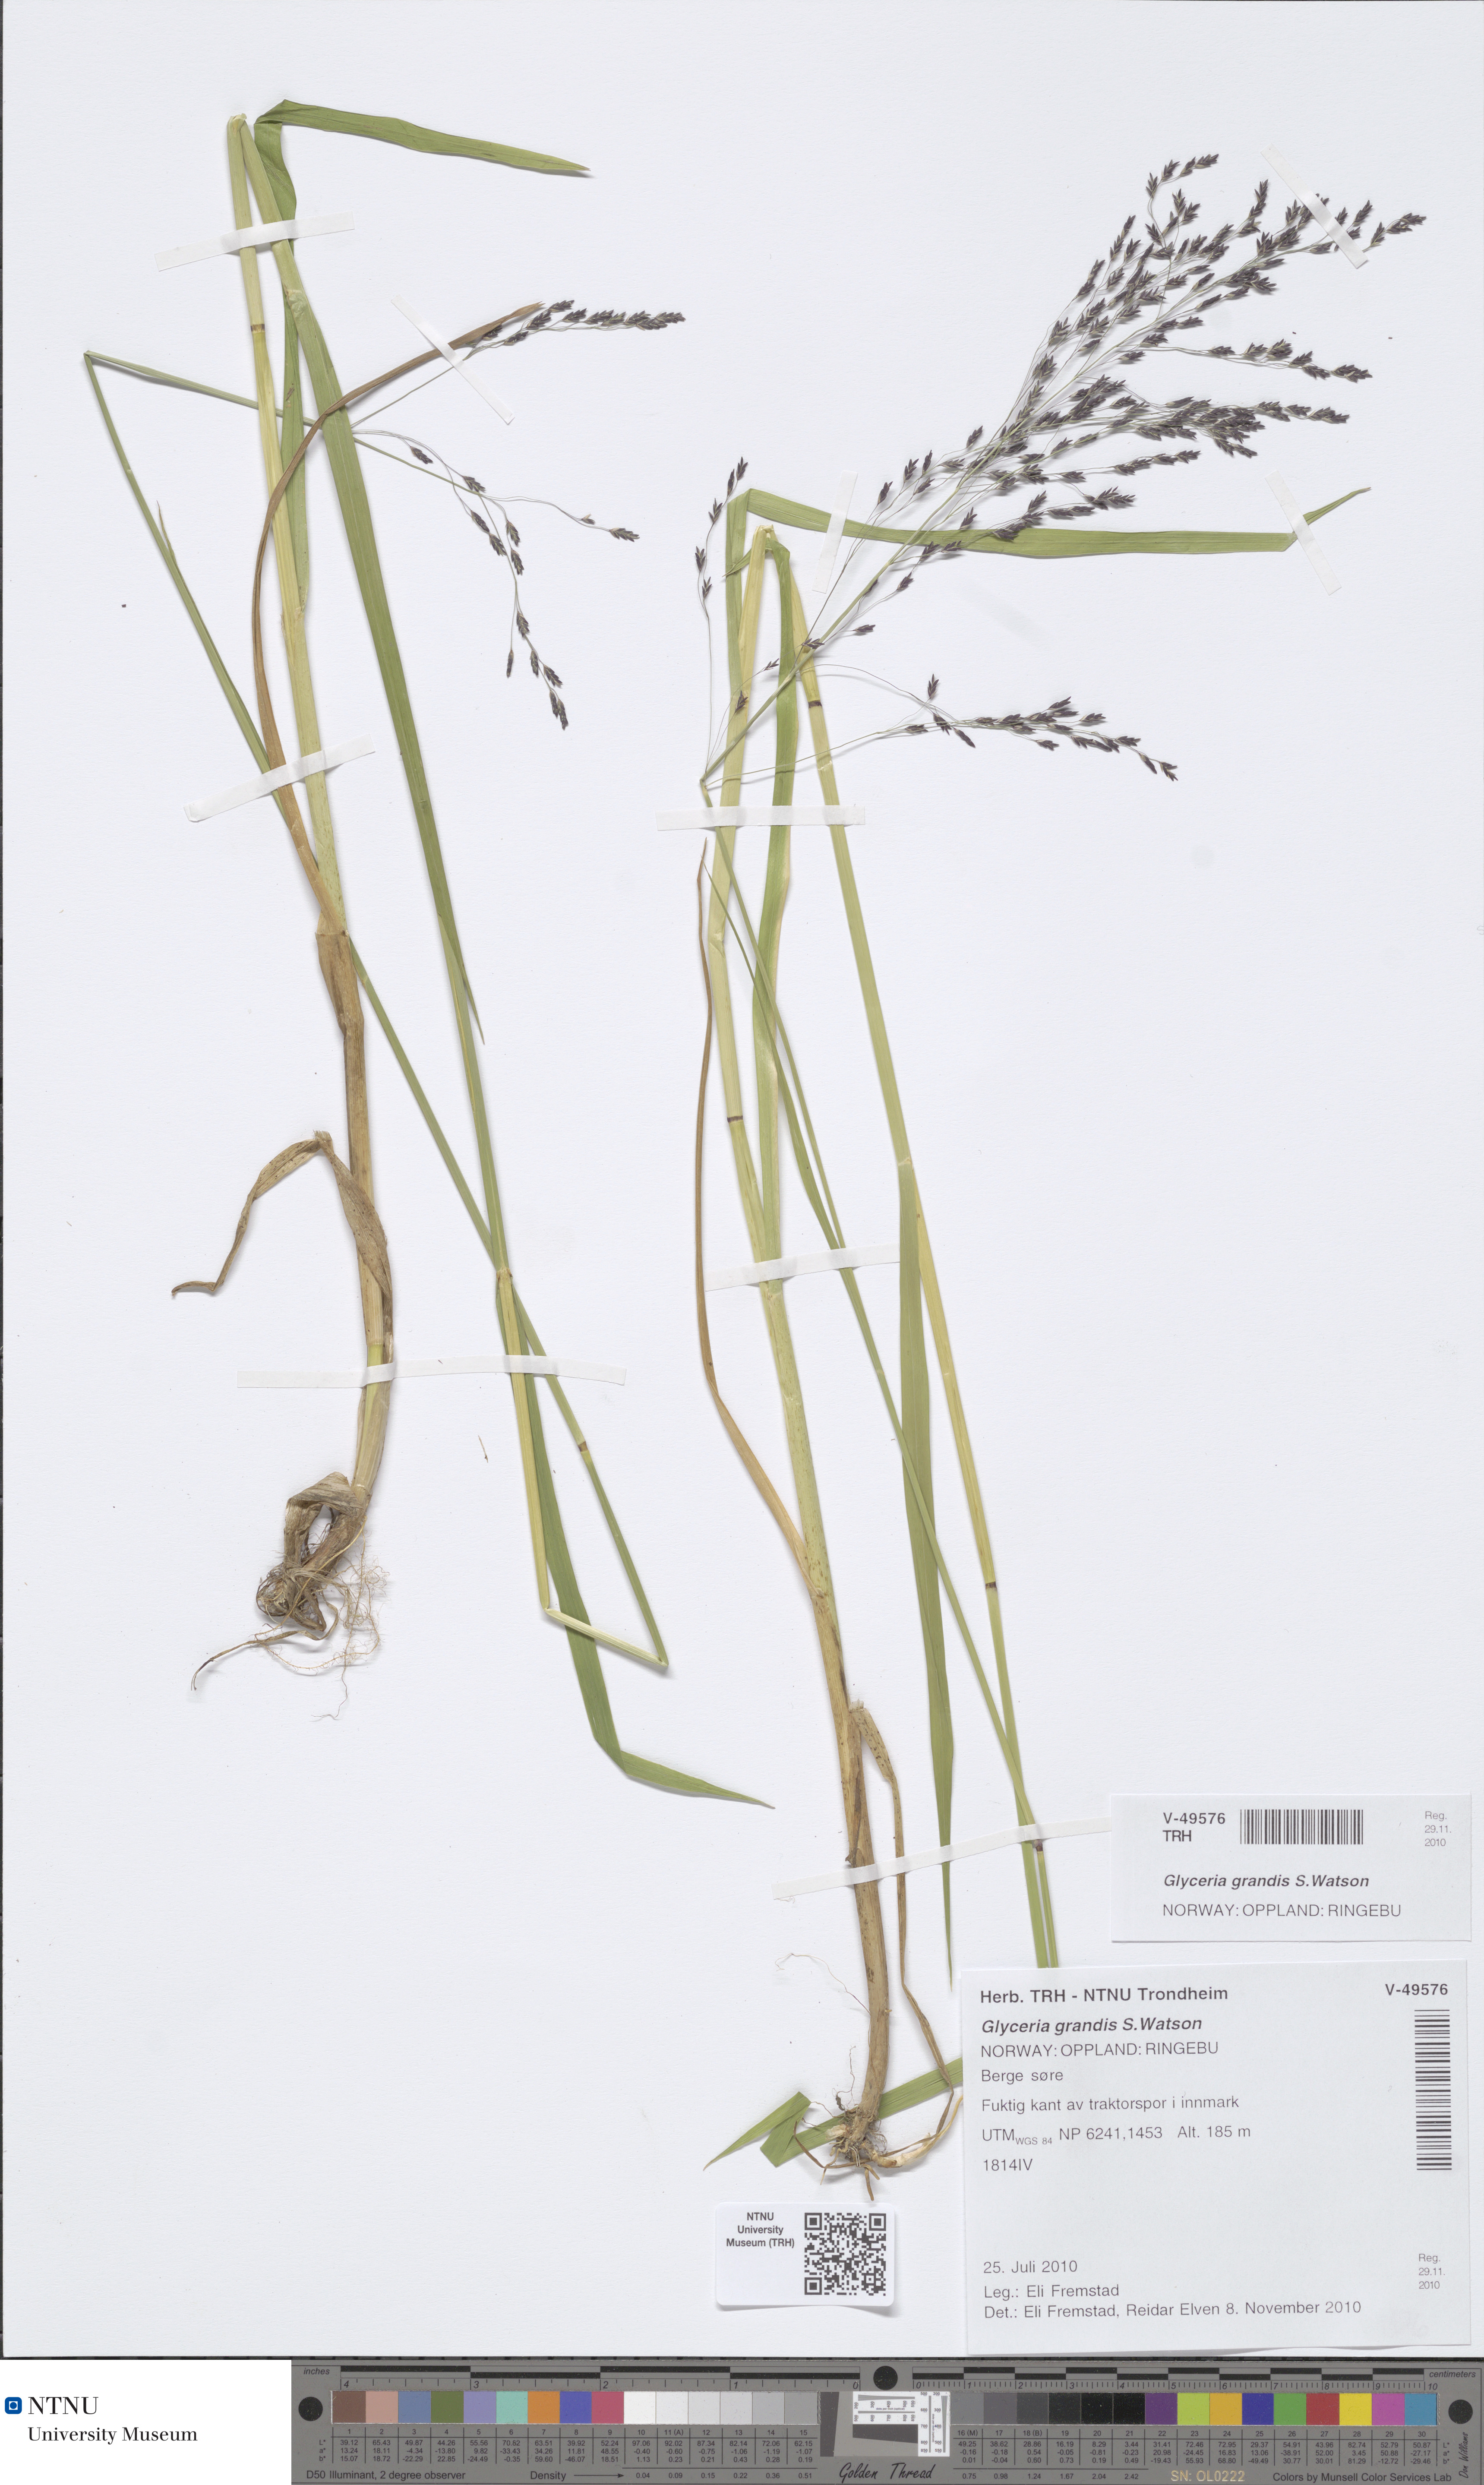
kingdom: Plantae
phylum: Tracheophyta
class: Liliopsida
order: Poales
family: Poaceae
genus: Glyceria
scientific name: Glyceria grandis
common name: American glyceria
